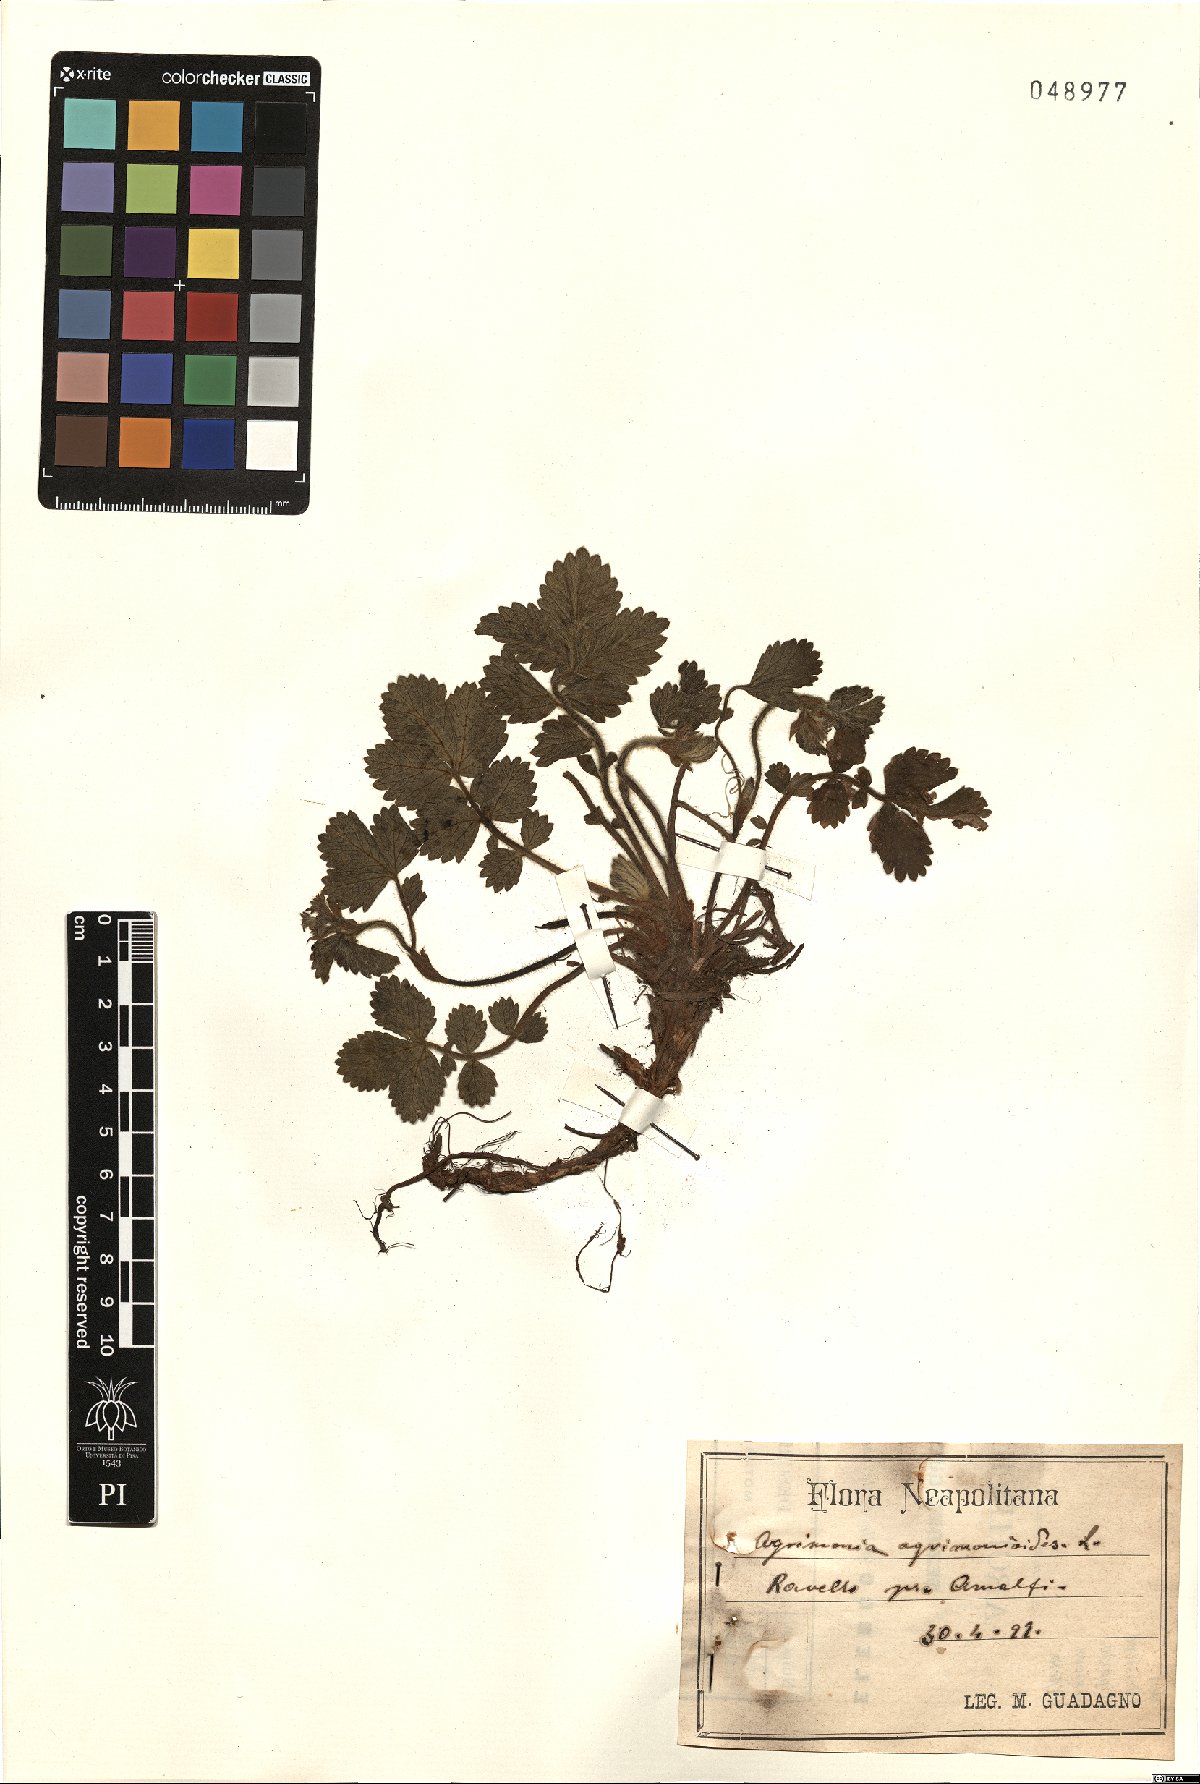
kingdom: Plantae
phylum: Tracheophyta
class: Magnoliopsida
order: Rosales
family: Rosaceae
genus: Aremonia
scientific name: Aremonia agrimonoides
